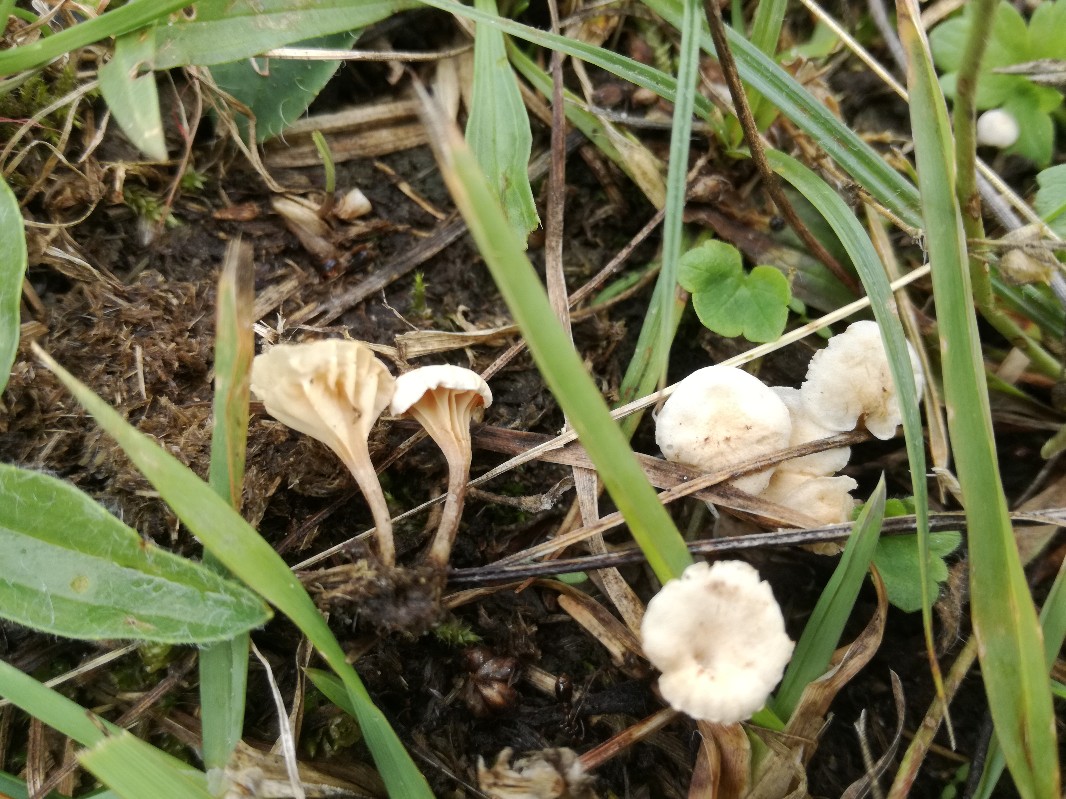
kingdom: Fungi
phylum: Basidiomycota
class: Agaricomycetes
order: Agaricales
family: Omphalotaceae
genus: Marasmiellus
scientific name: Marasmiellus tricolor
